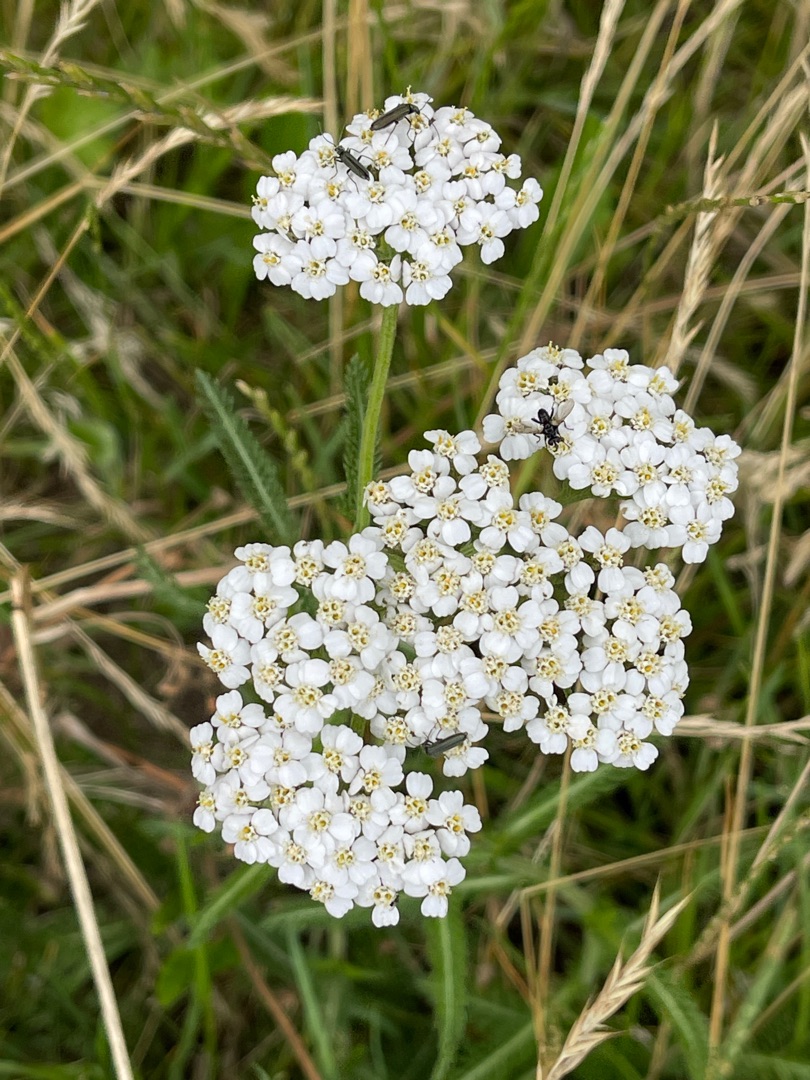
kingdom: Plantae
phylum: Tracheophyta
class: Magnoliopsida
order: Asterales
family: Asteraceae
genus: Achillea
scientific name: Achillea millefolium
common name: Almindelig røllike
